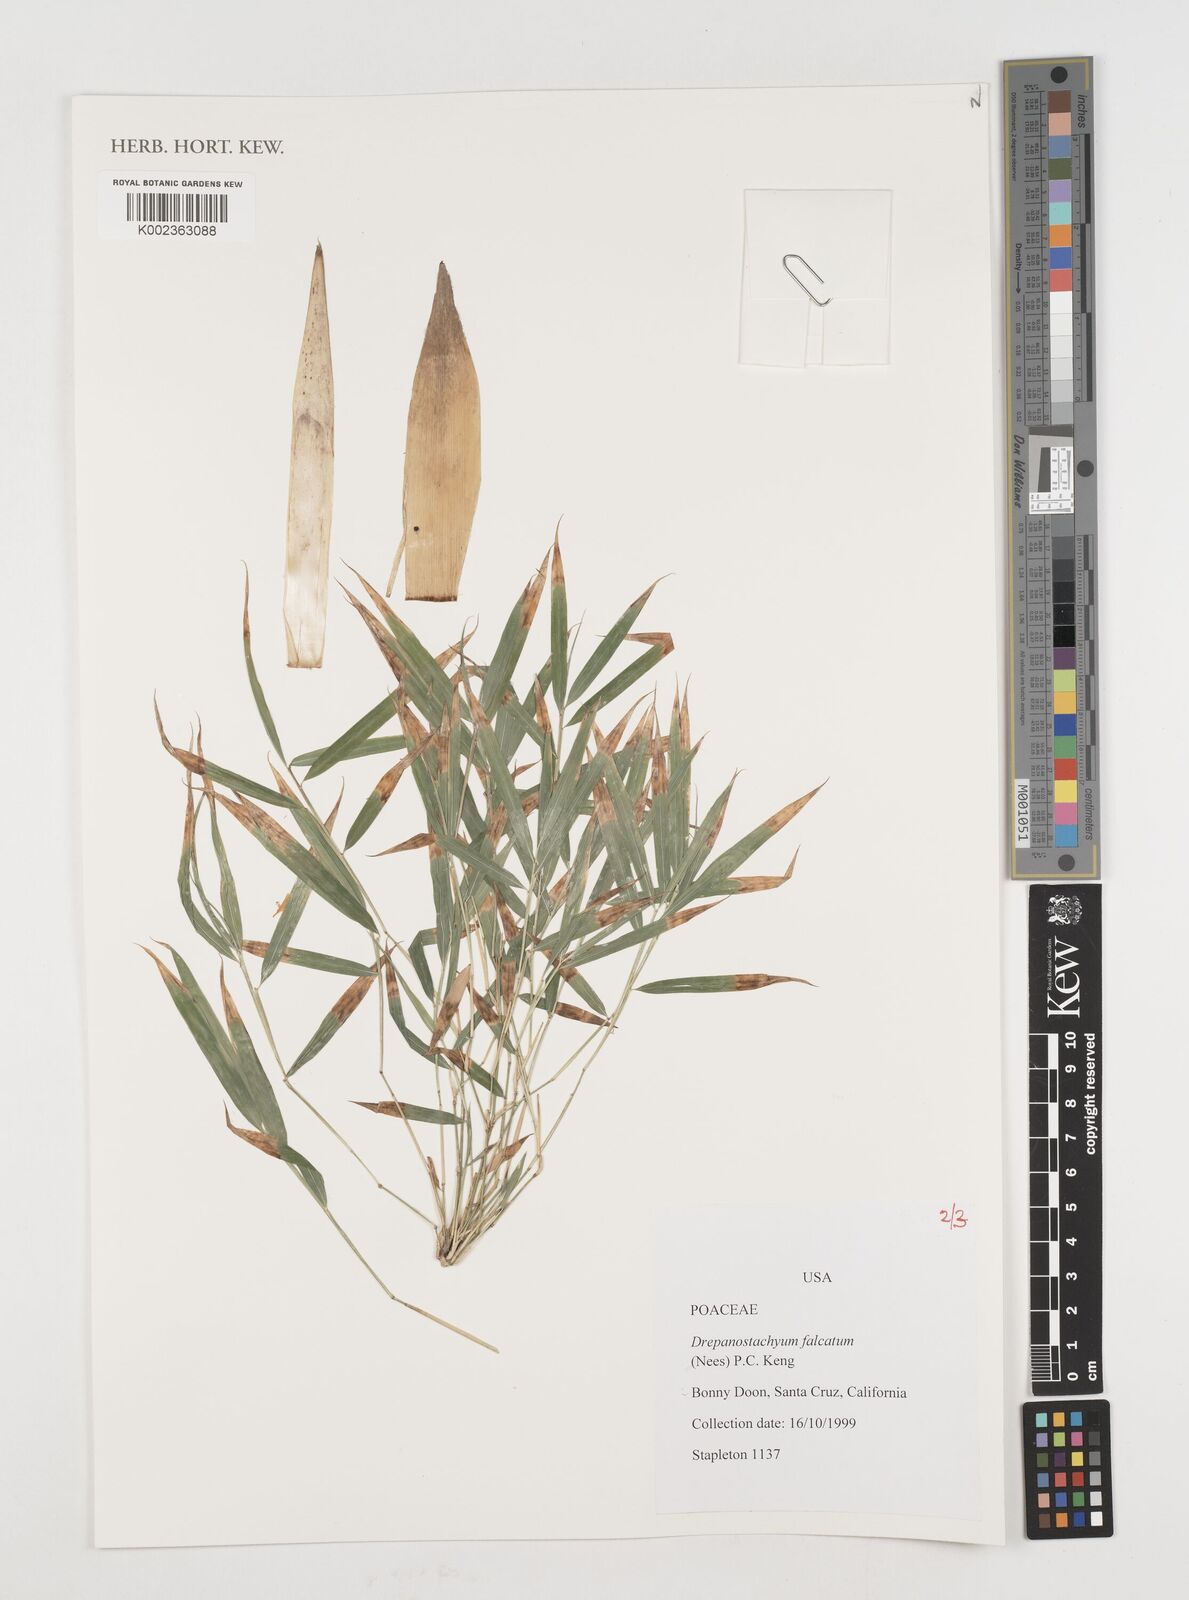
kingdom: Plantae
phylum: Tracheophyta
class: Liliopsida
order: Poales
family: Poaceae
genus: Drepanostachyum
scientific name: Drepanostachyum falcatum
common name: Himalayan bamboo
